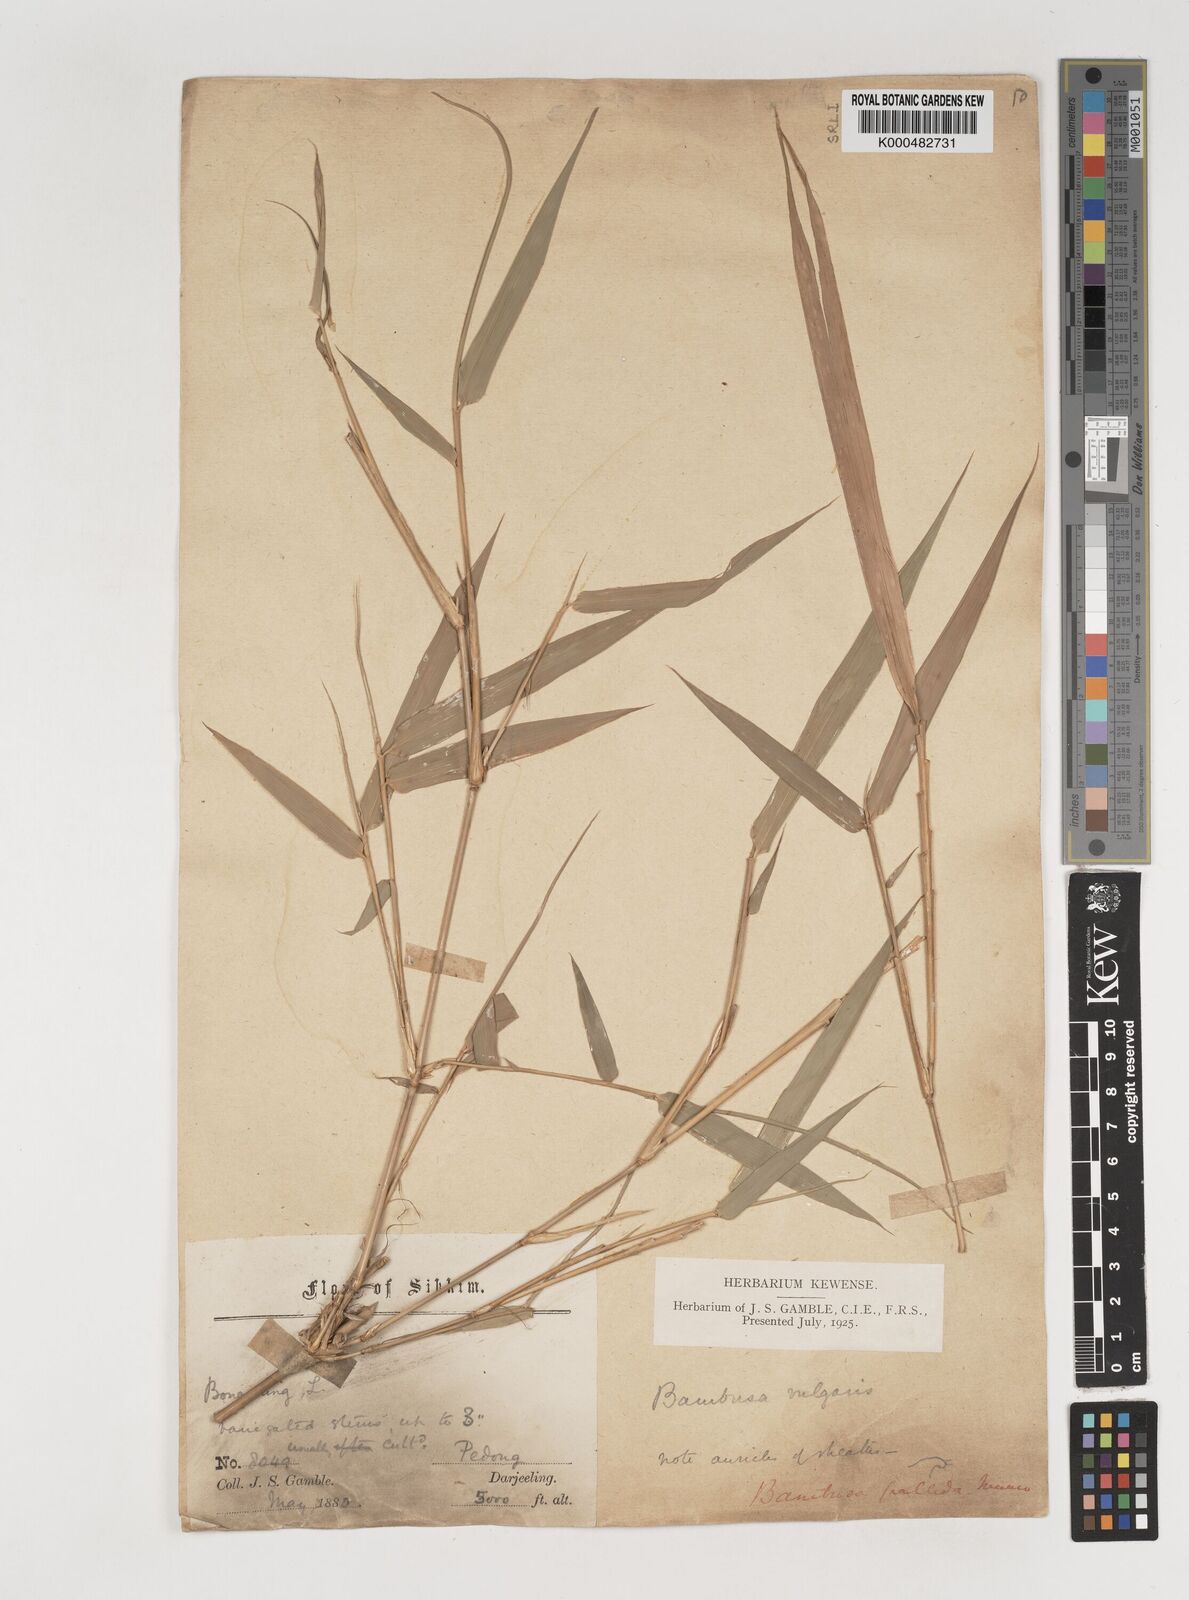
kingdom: Plantae
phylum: Tracheophyta
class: Liliopsida
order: Poales
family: Poaceae
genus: Bambusa
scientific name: Bambusa pallida
